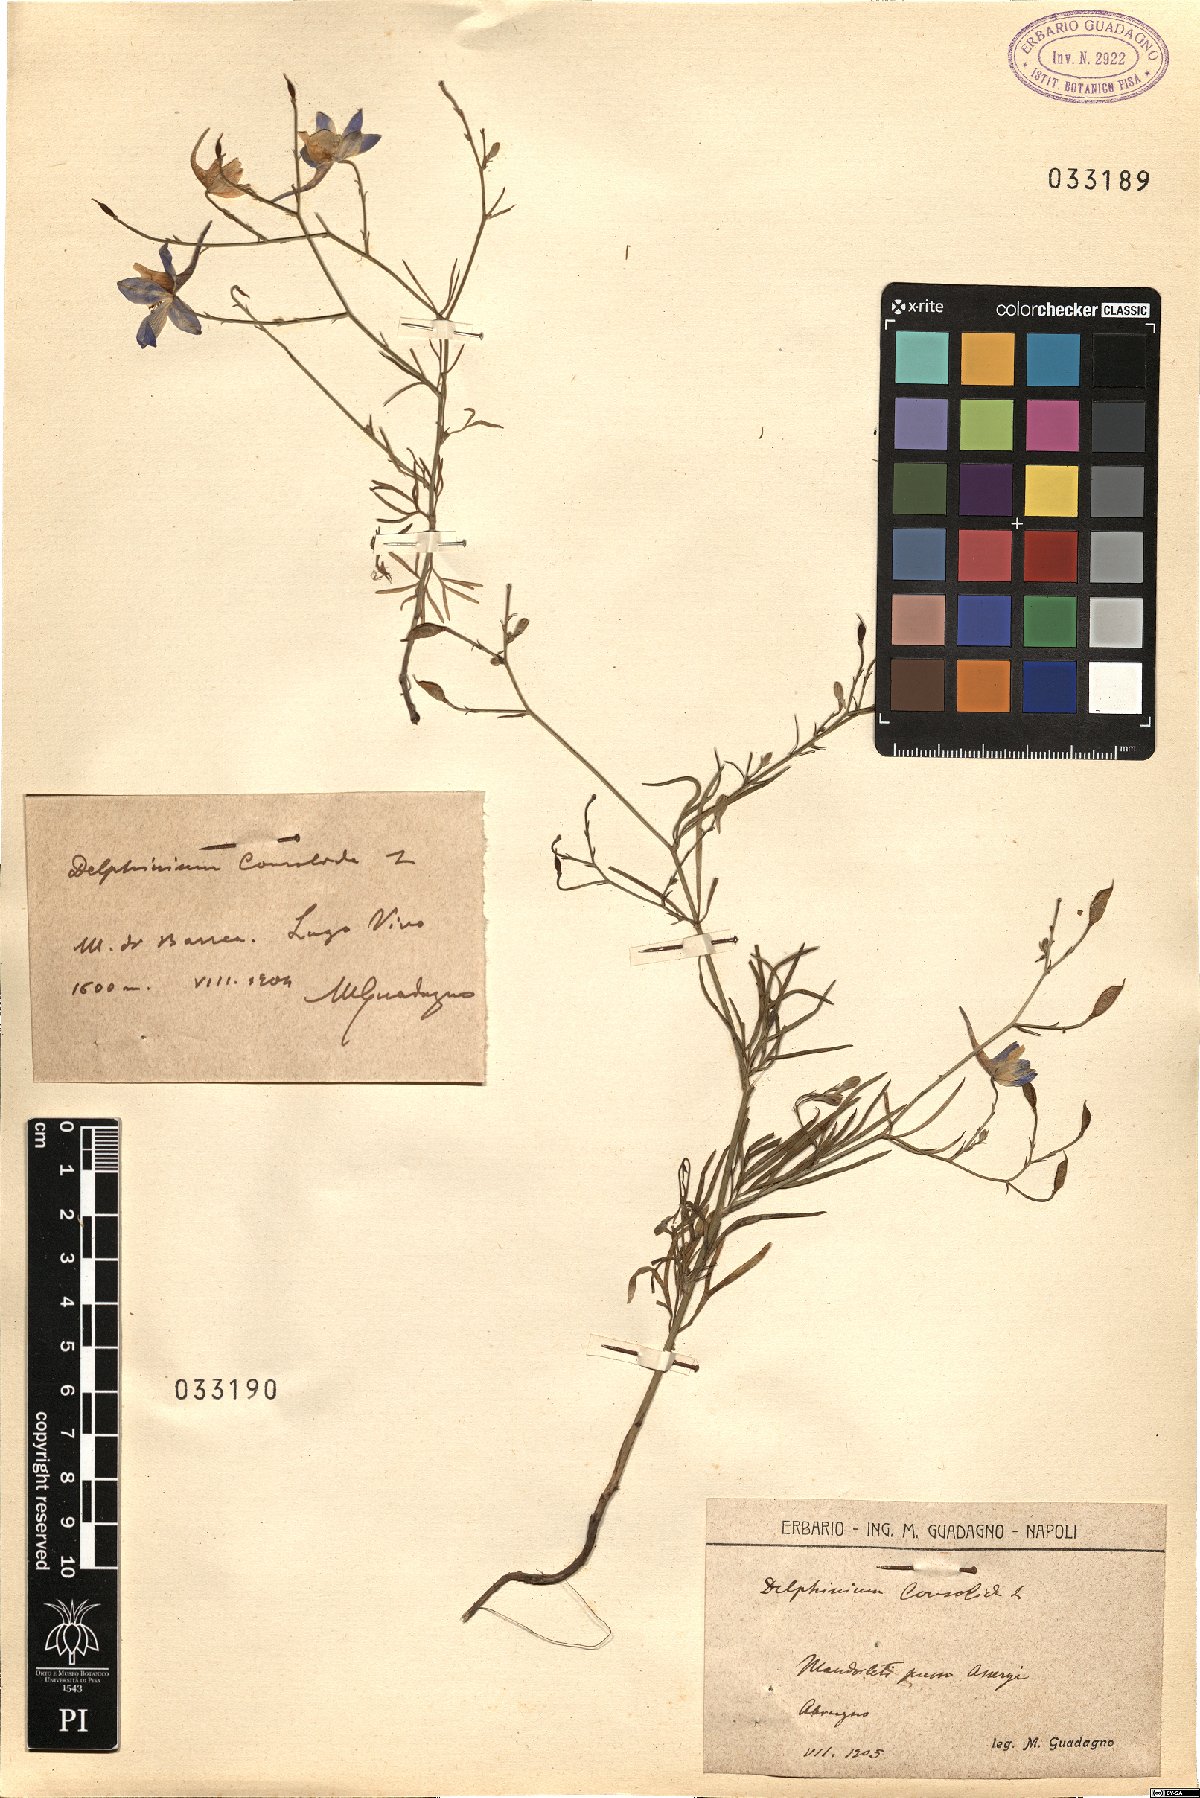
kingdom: Plantae
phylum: Tracheophyta
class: Magnoliopsida
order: Ranunculales
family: Ranunculaceae
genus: Delphinium
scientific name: Delphinium consolida
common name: Branching larkspur
